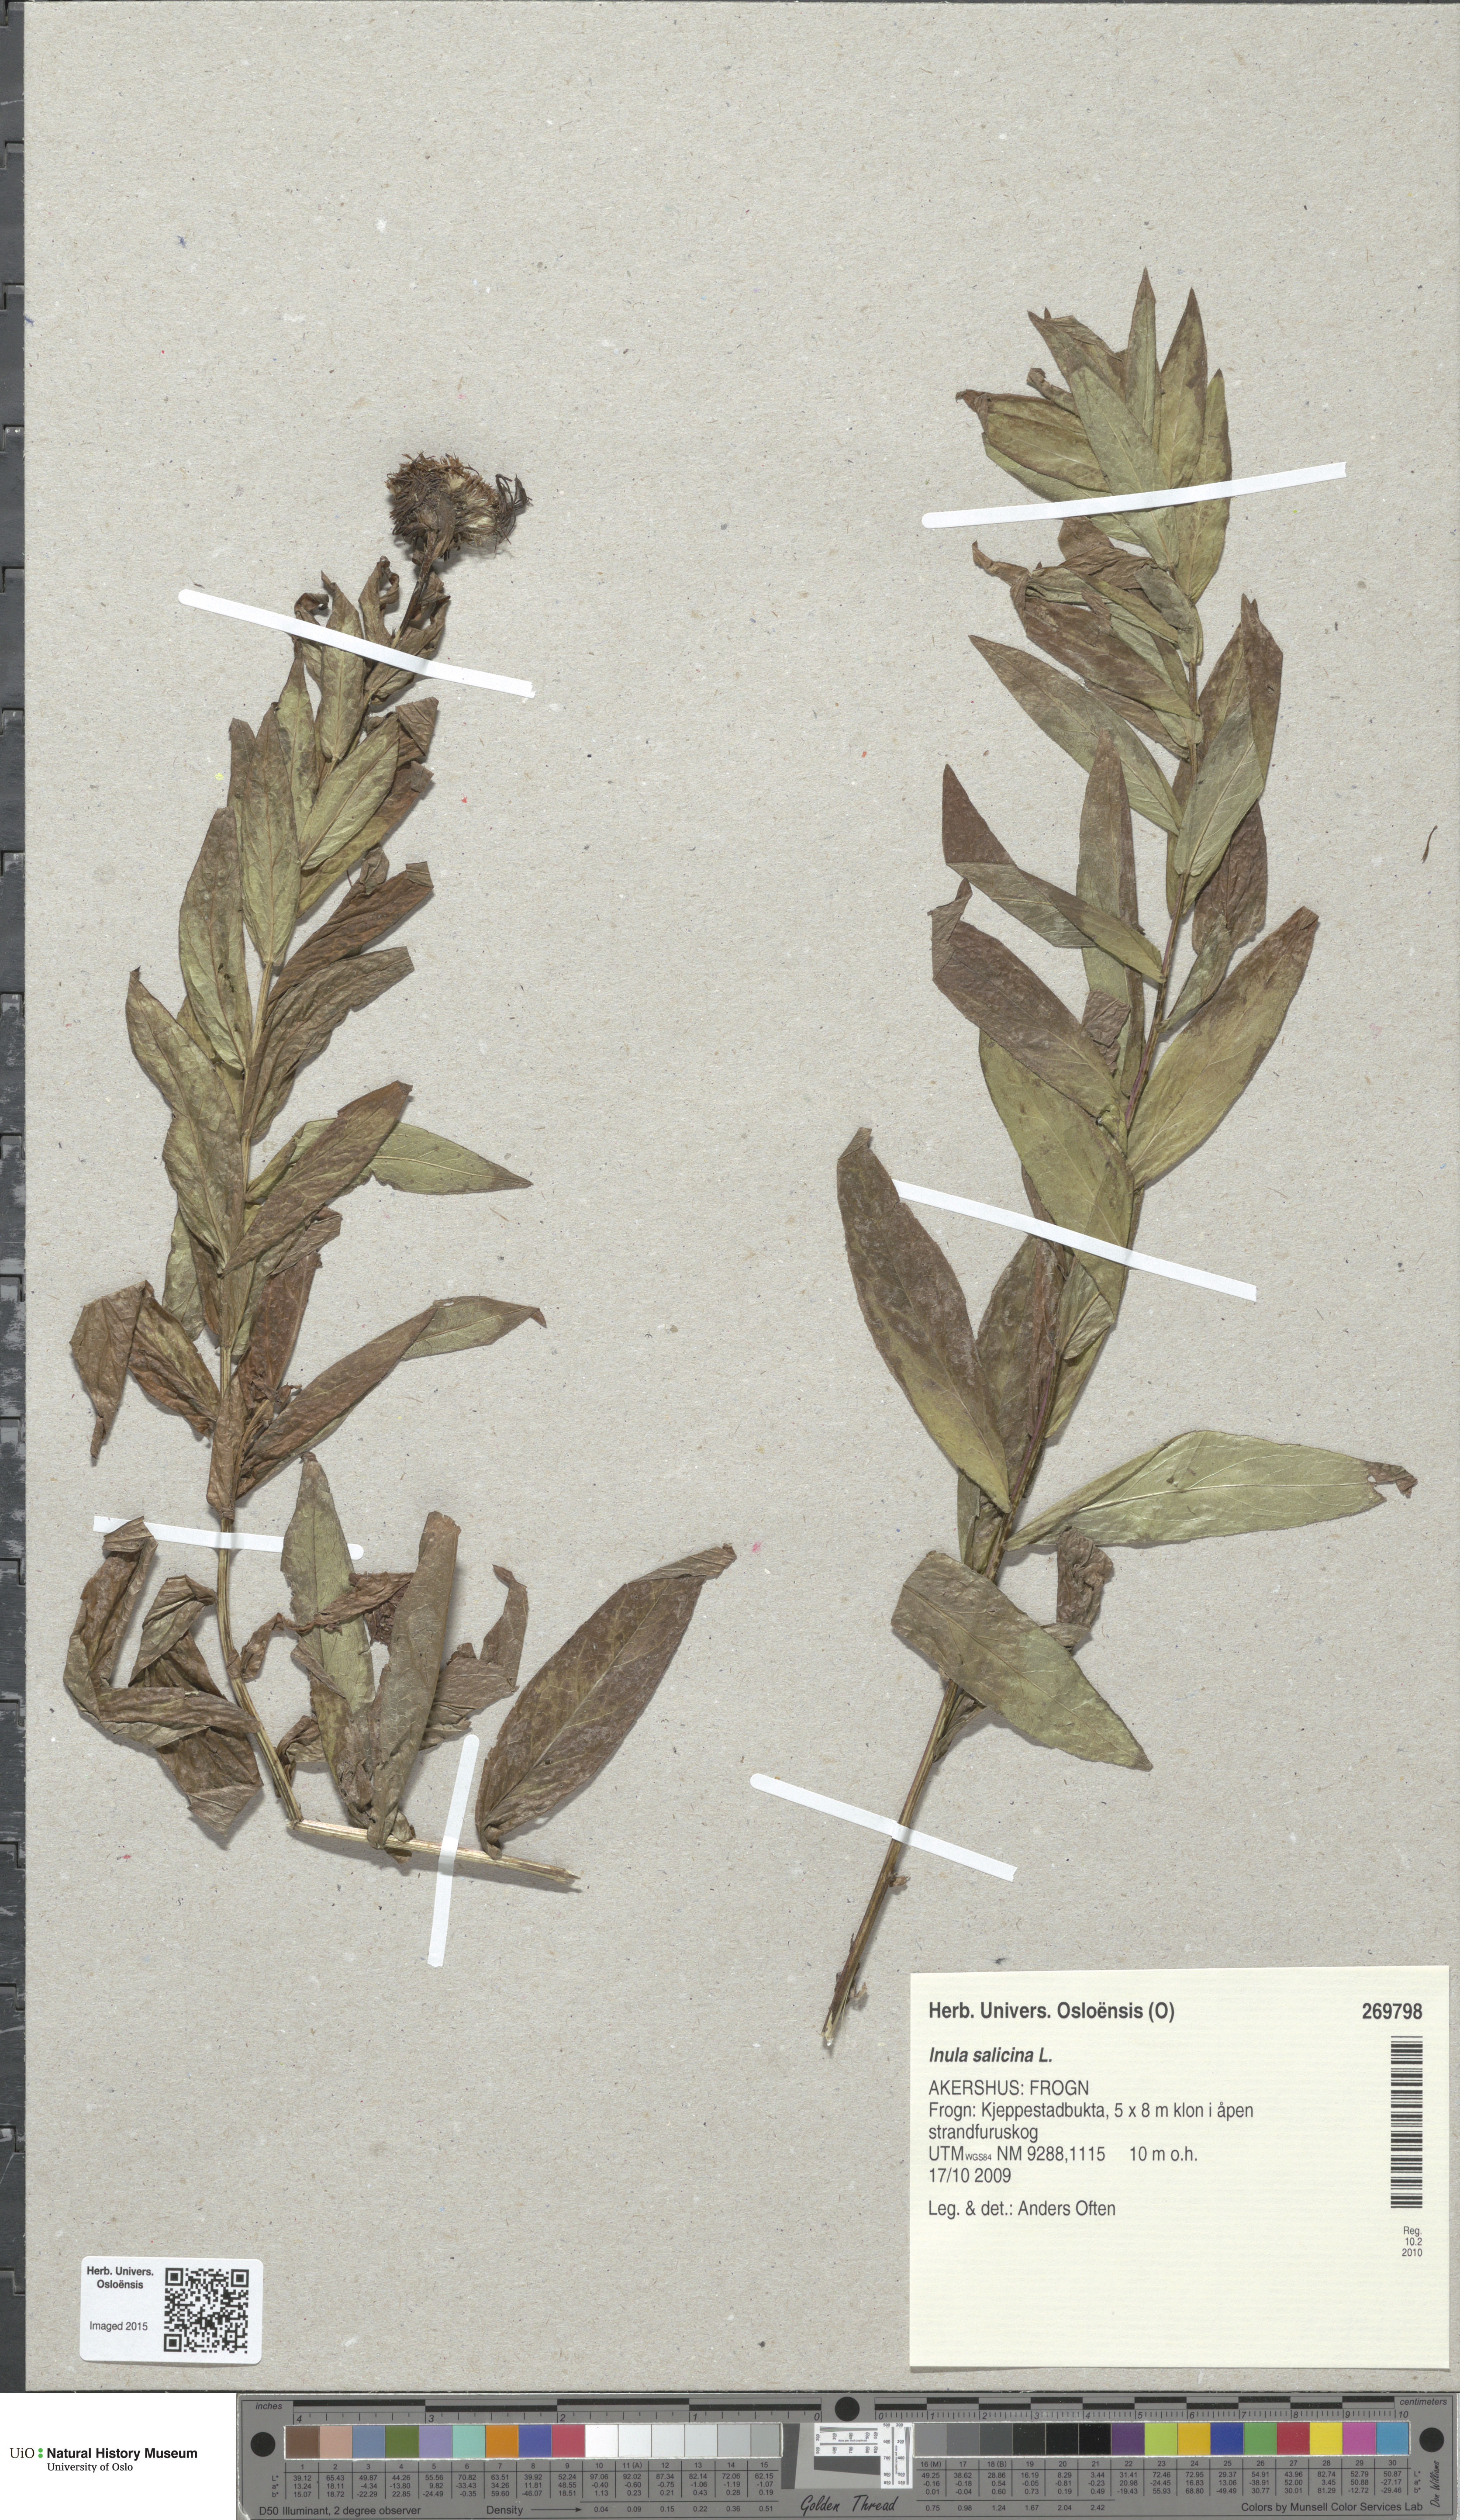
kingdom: Plantae
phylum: Tracheophyta
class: Magnoliopsida
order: Asterales
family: Asteraceae
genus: Pentanema
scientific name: Pentanema salicinum
